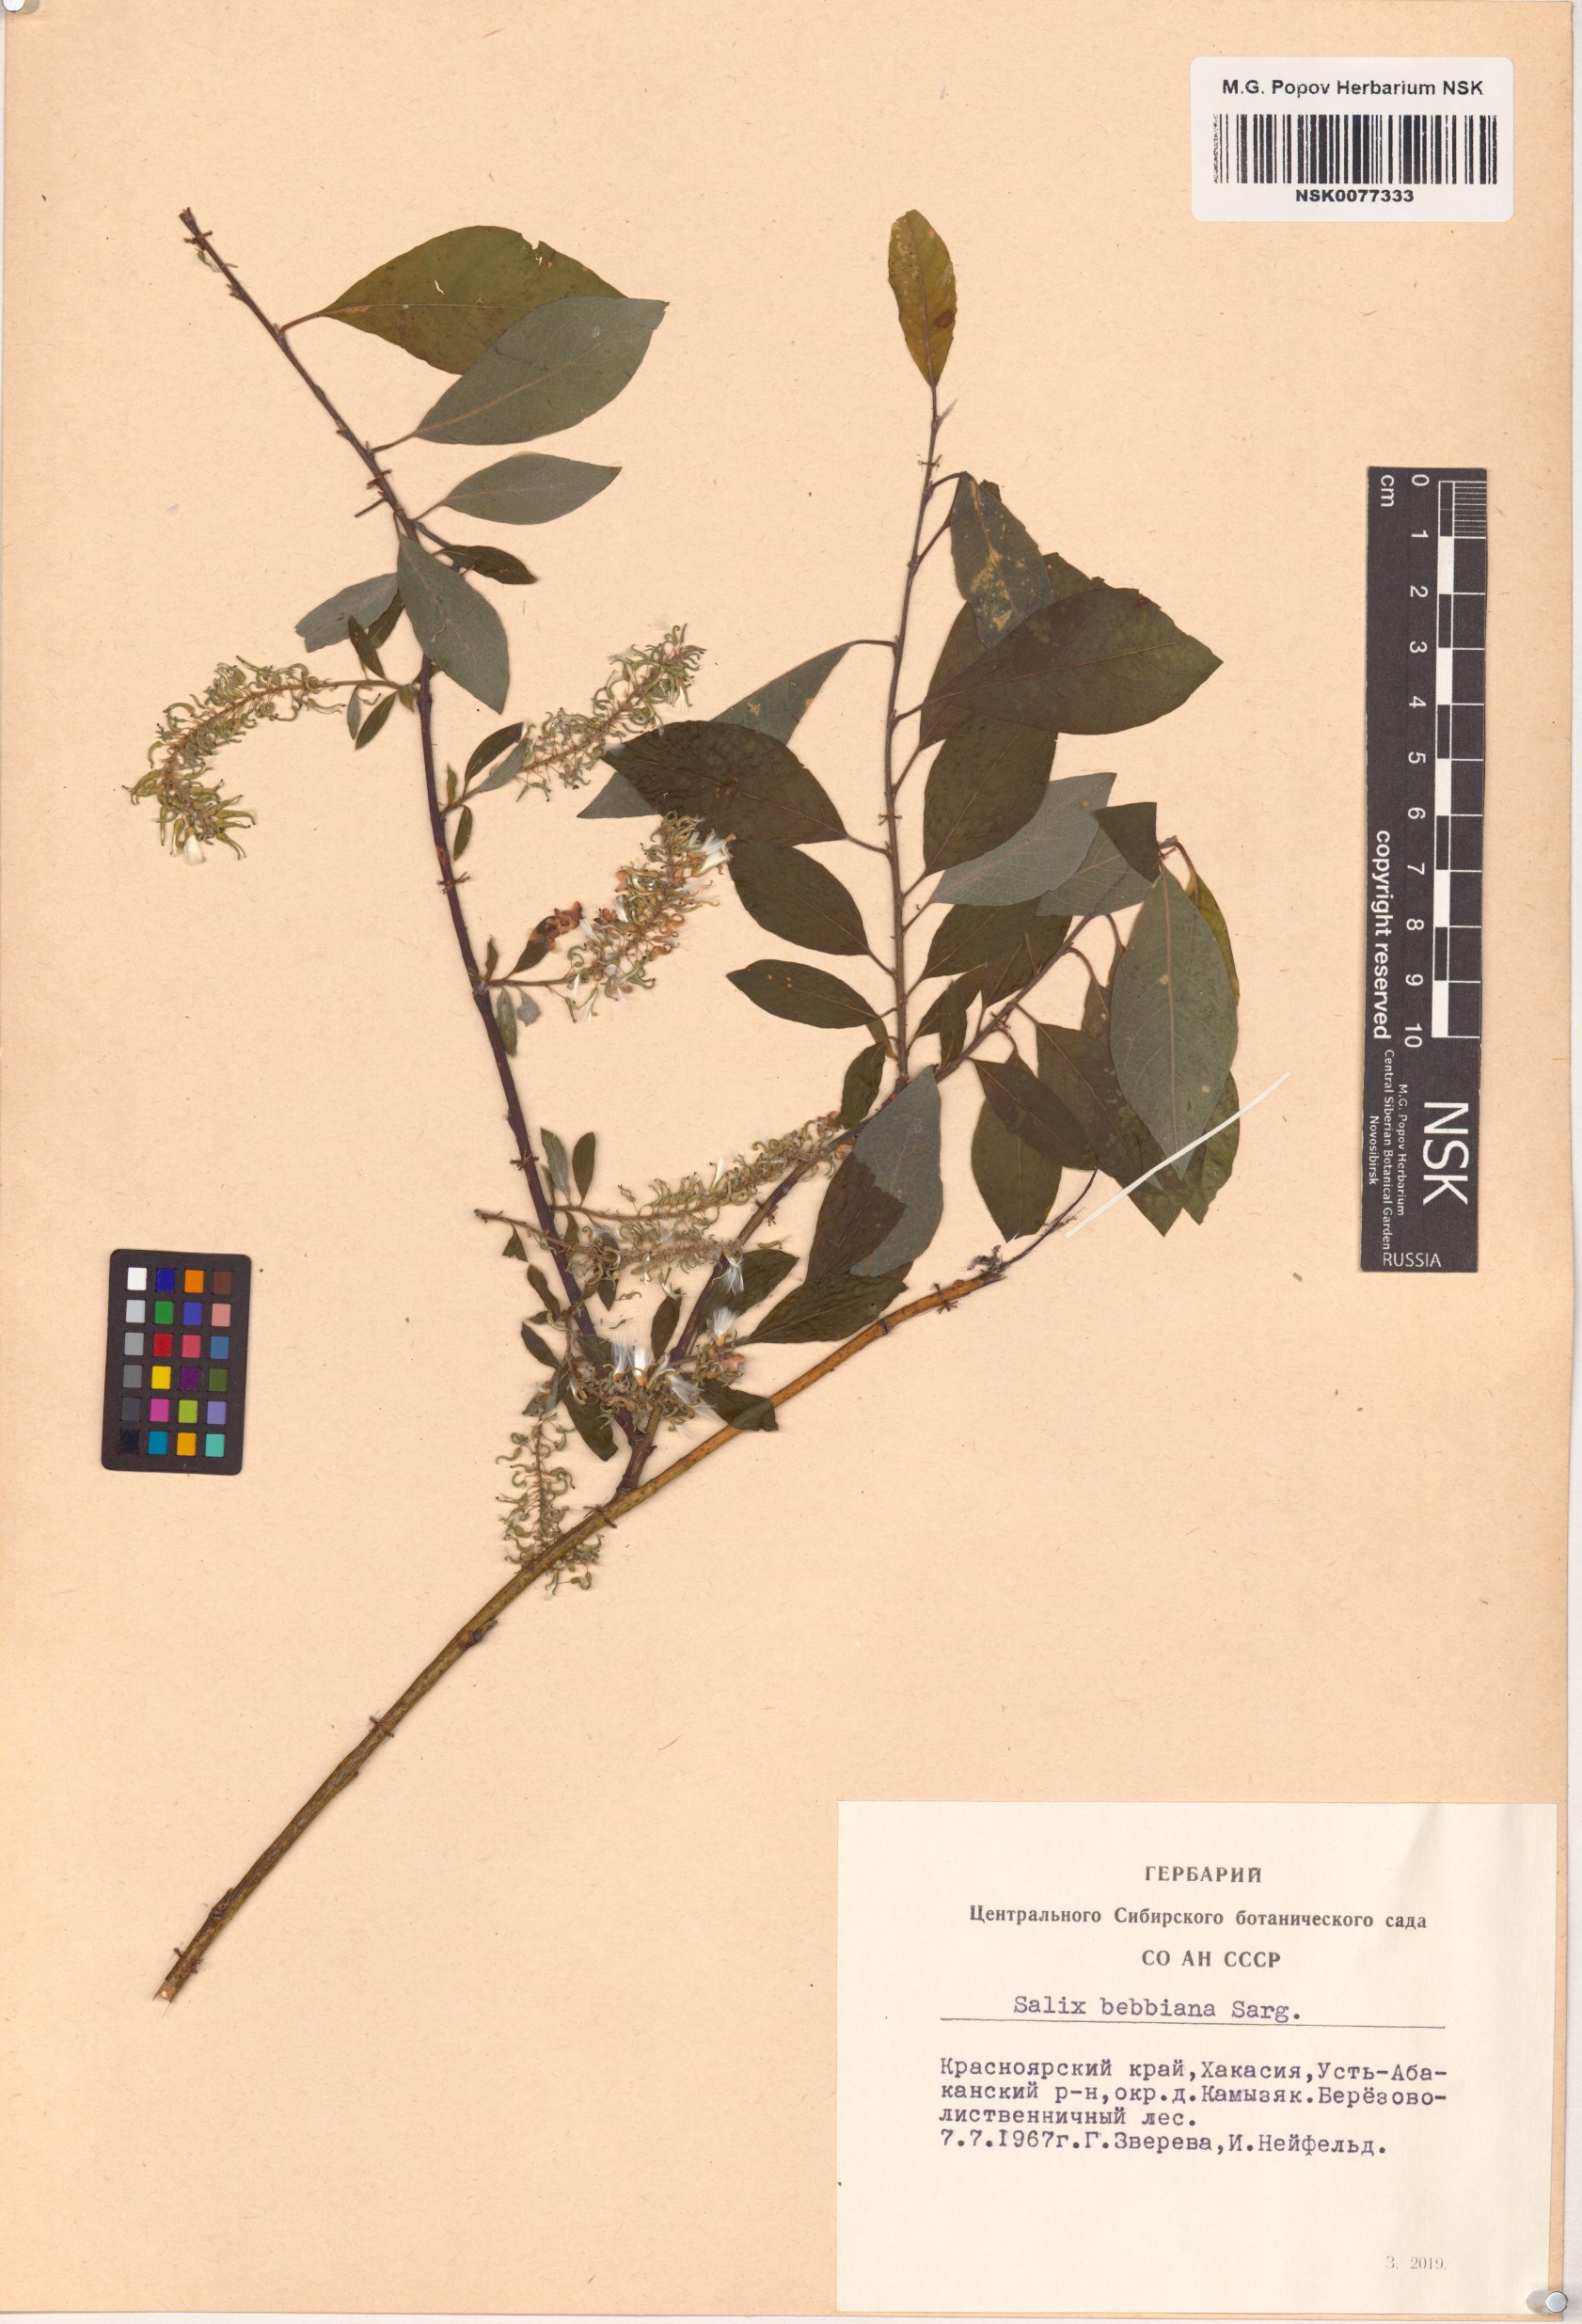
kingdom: Plantae
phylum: Tracheophyta
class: Magnoliopsida
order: Malpighiales
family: Salicaceae
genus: Salix
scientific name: Salix bebbiana
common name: Bebb's willow
